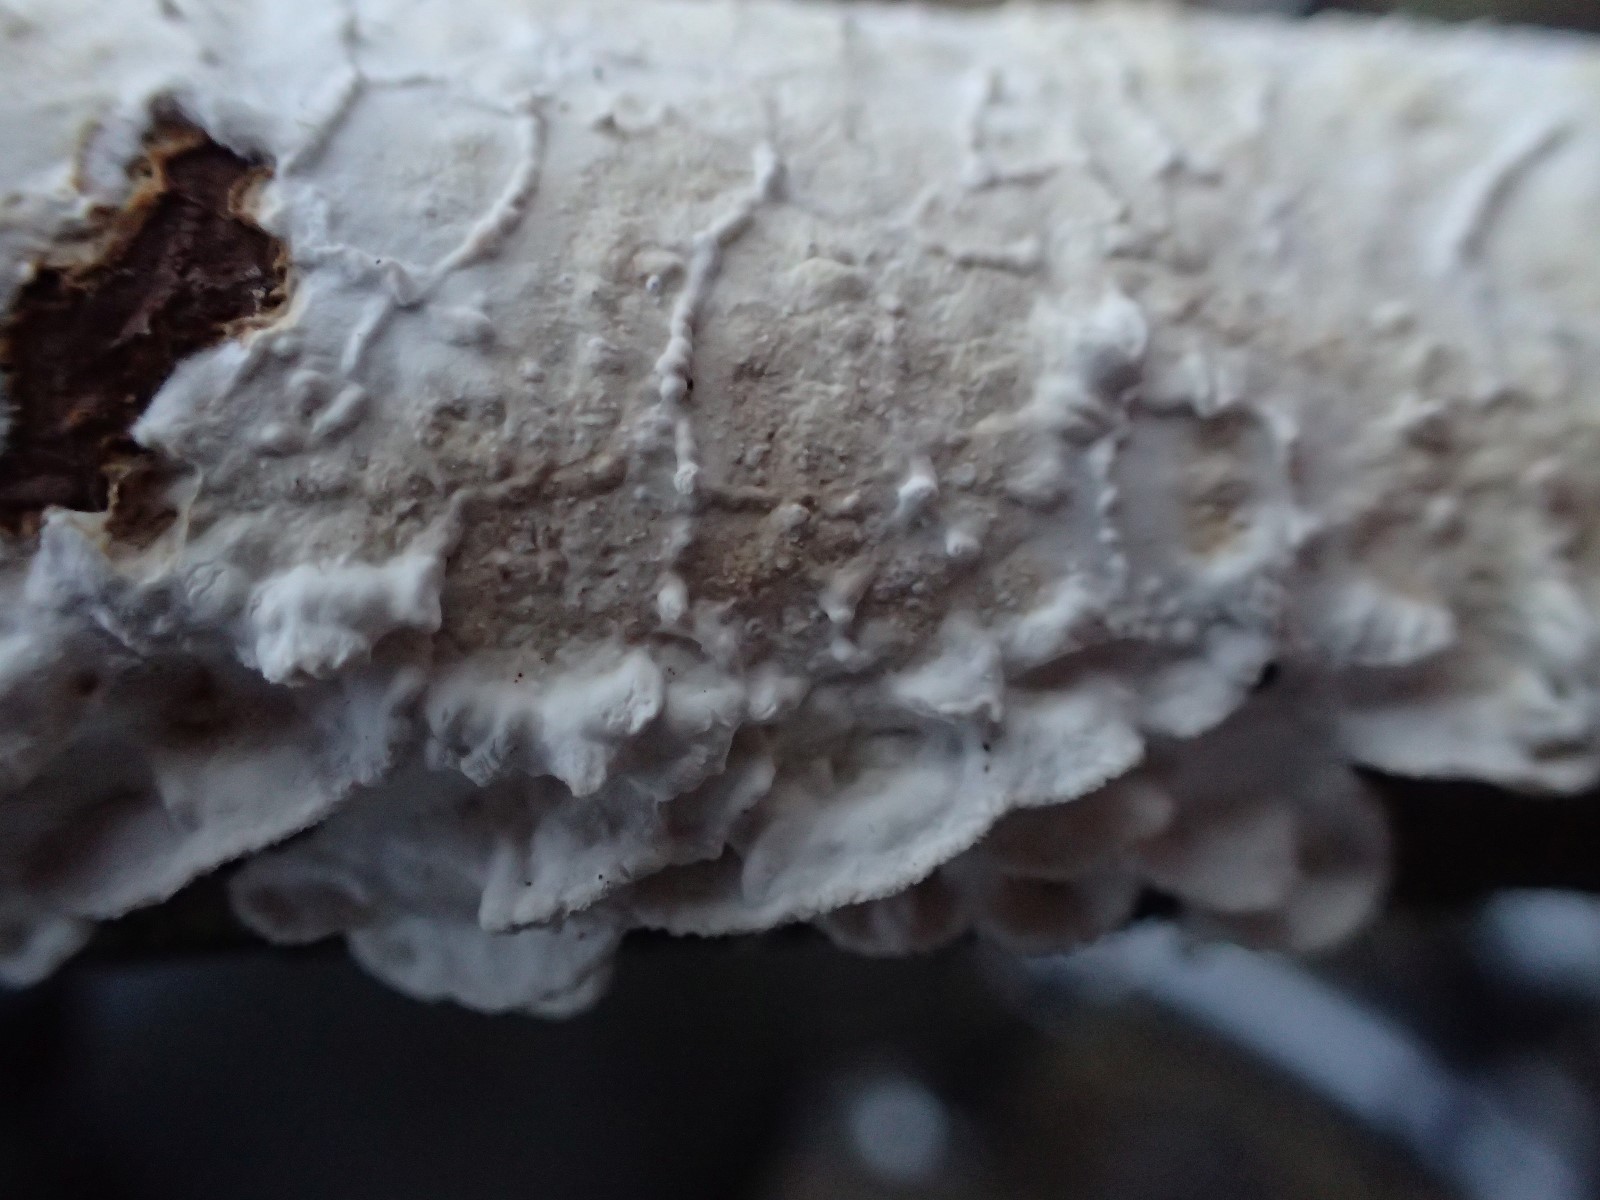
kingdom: Fungi
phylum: Basidiomycota
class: Agaricomycetes
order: Polyporales
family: Irpicaceae
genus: Byssomerulius
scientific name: Byssomerulius corium
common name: læder-åresvamp
